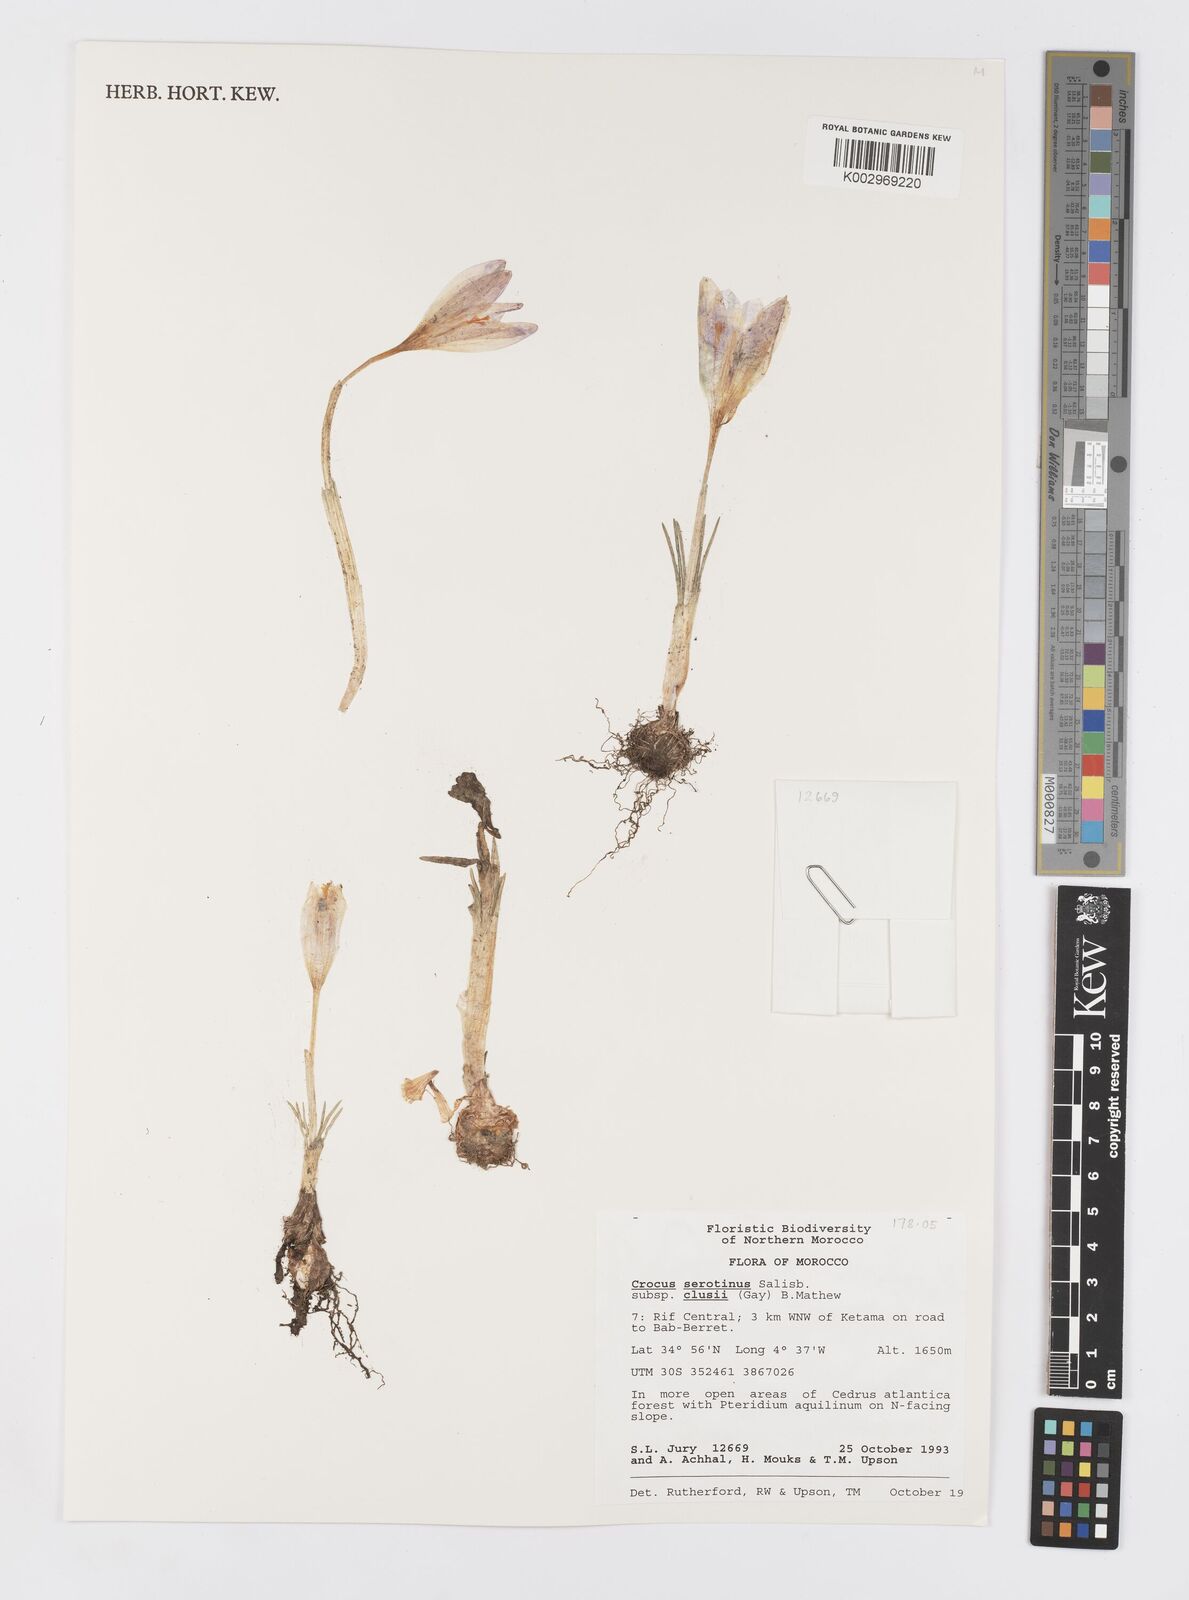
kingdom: Plantae
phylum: Tracheophyta
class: Liliopsida
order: Asparagales
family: Iridaceae
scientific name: Iridaceae
